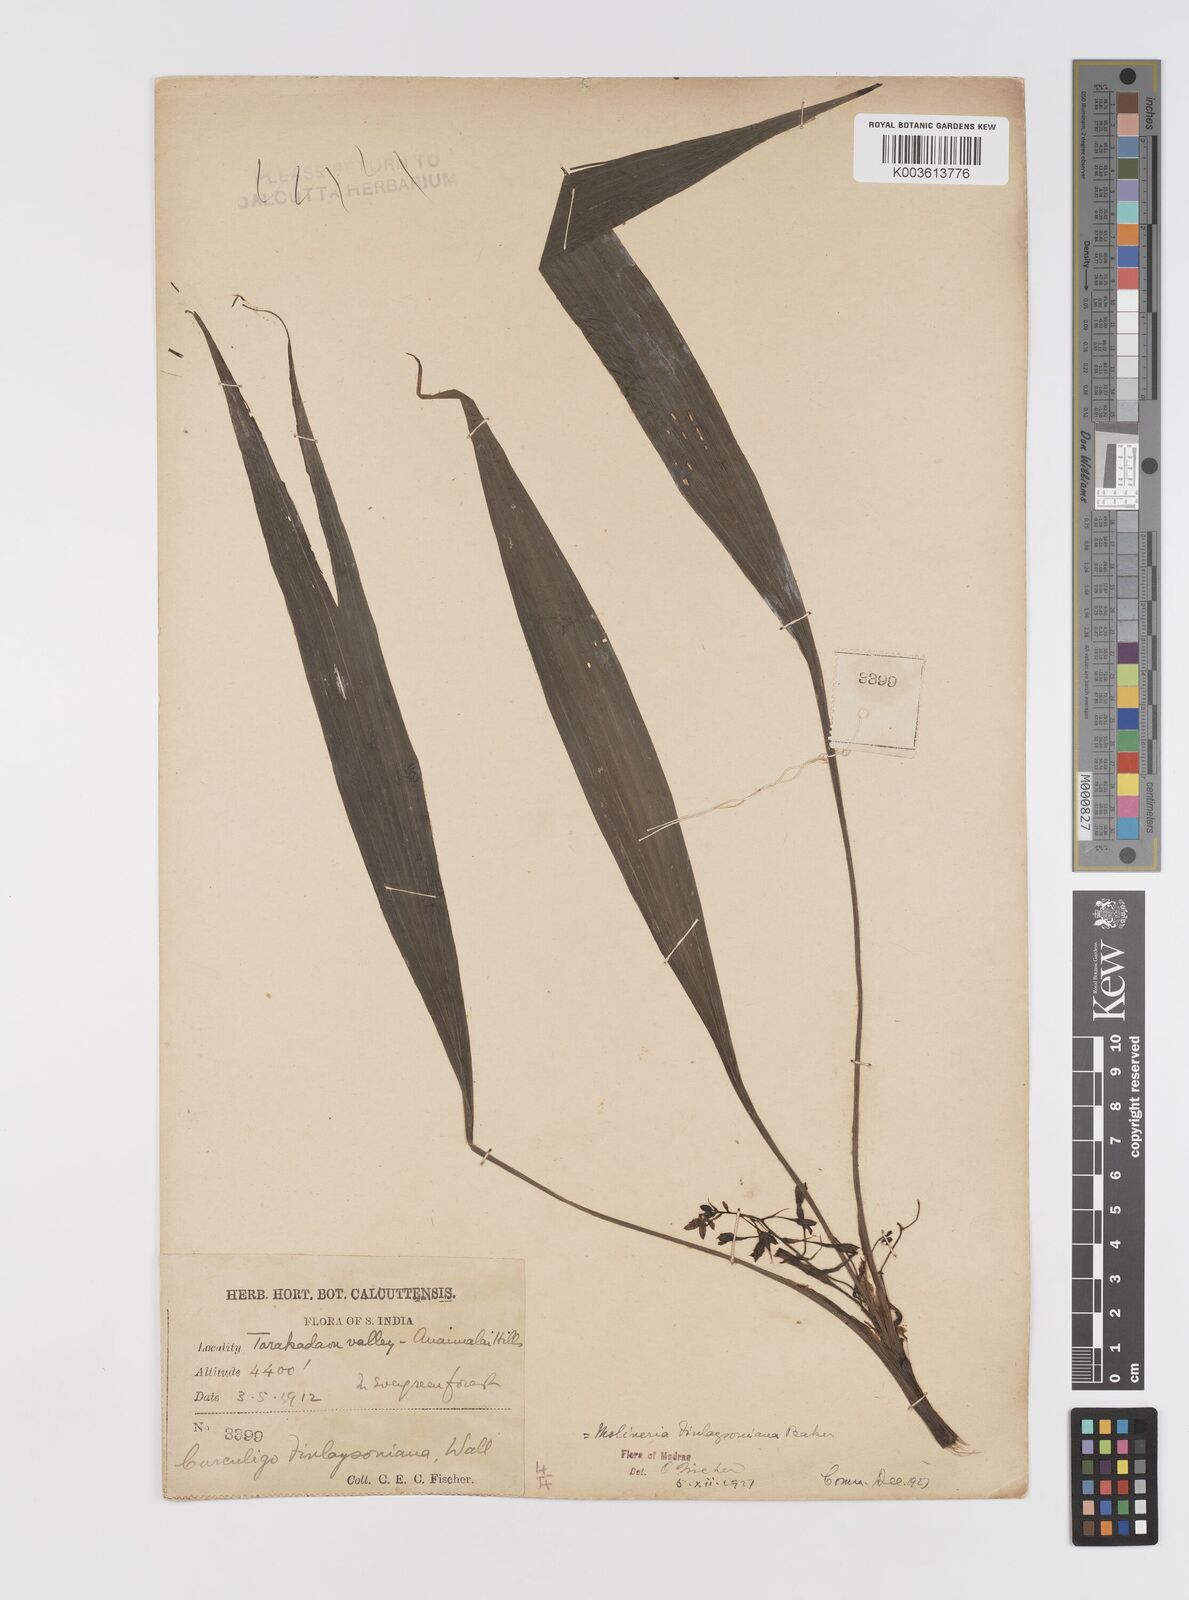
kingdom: Plantae
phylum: Tracheophyta
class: Liliopsida
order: Asparagales
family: Hypoxidaceae
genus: Curculigo
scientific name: Curculigo trichocarpa
